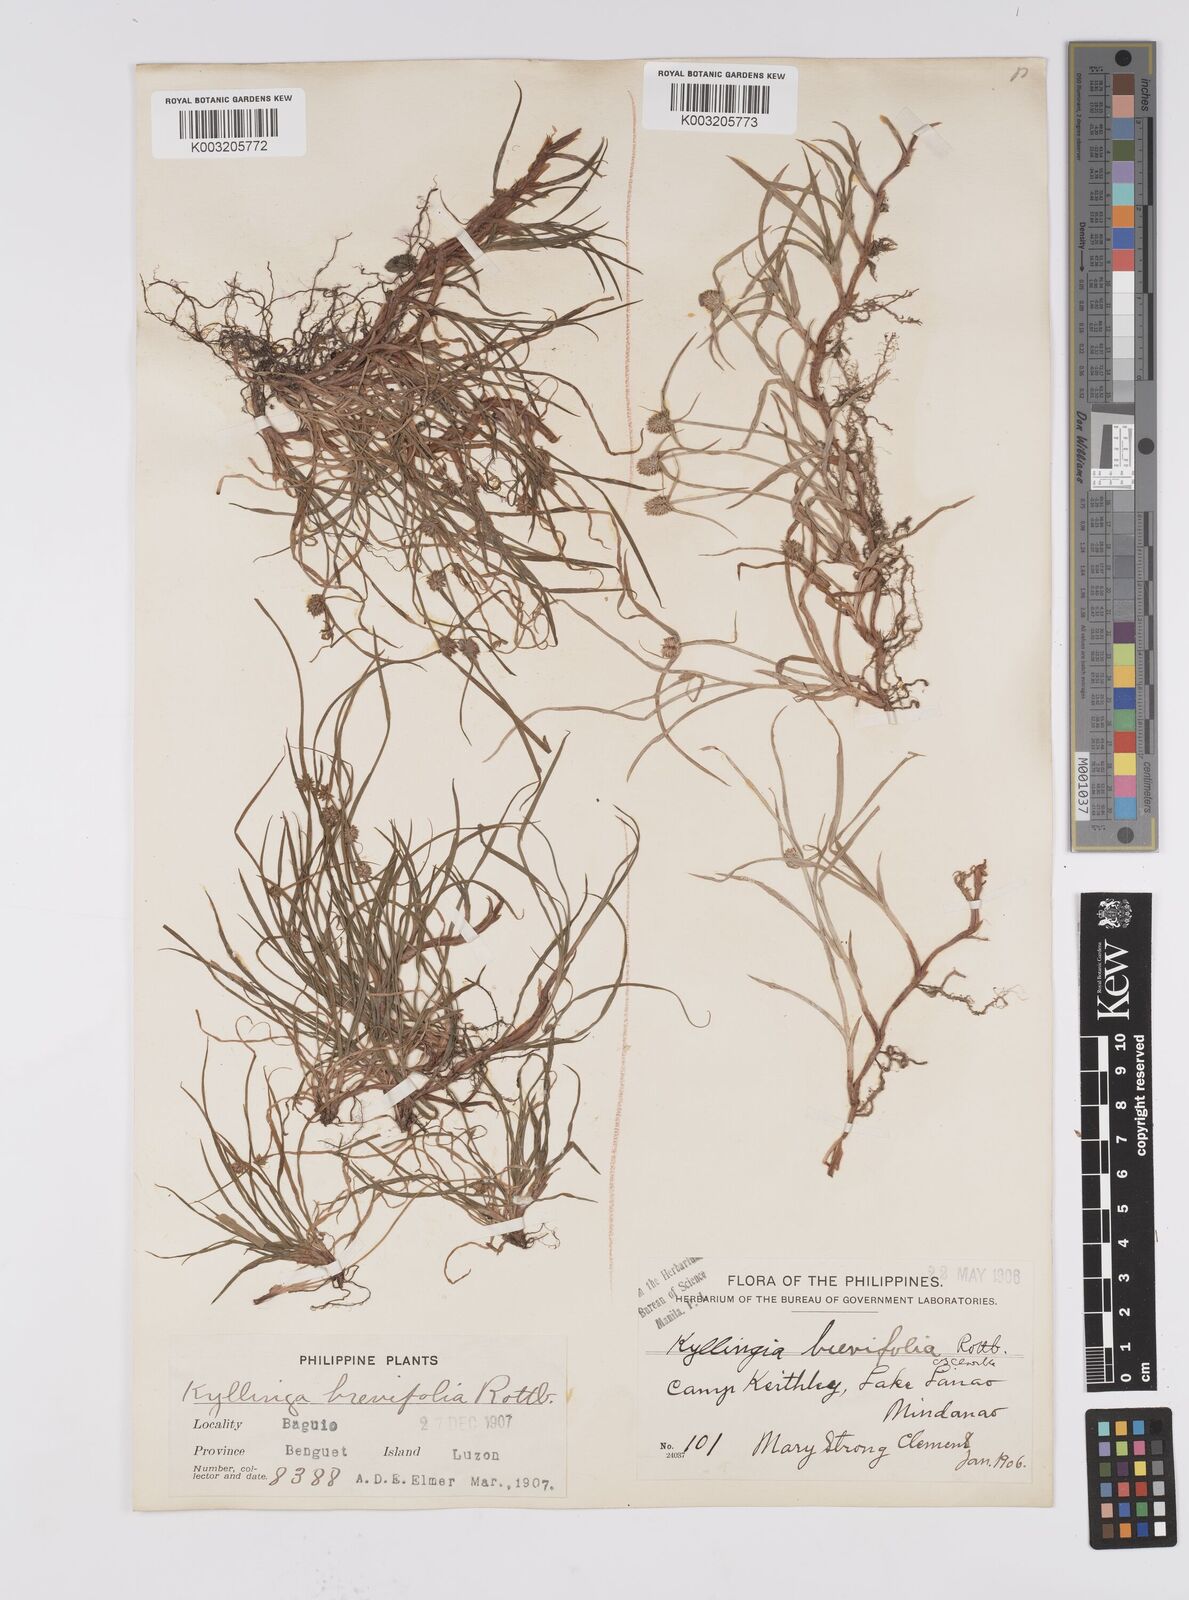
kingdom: Plantae
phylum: Tracheophyta
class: Liliopsida
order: Poales
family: Cyperaceae
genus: Cyperus
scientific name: Cyperus brevifolius
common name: Globe kyllinga
